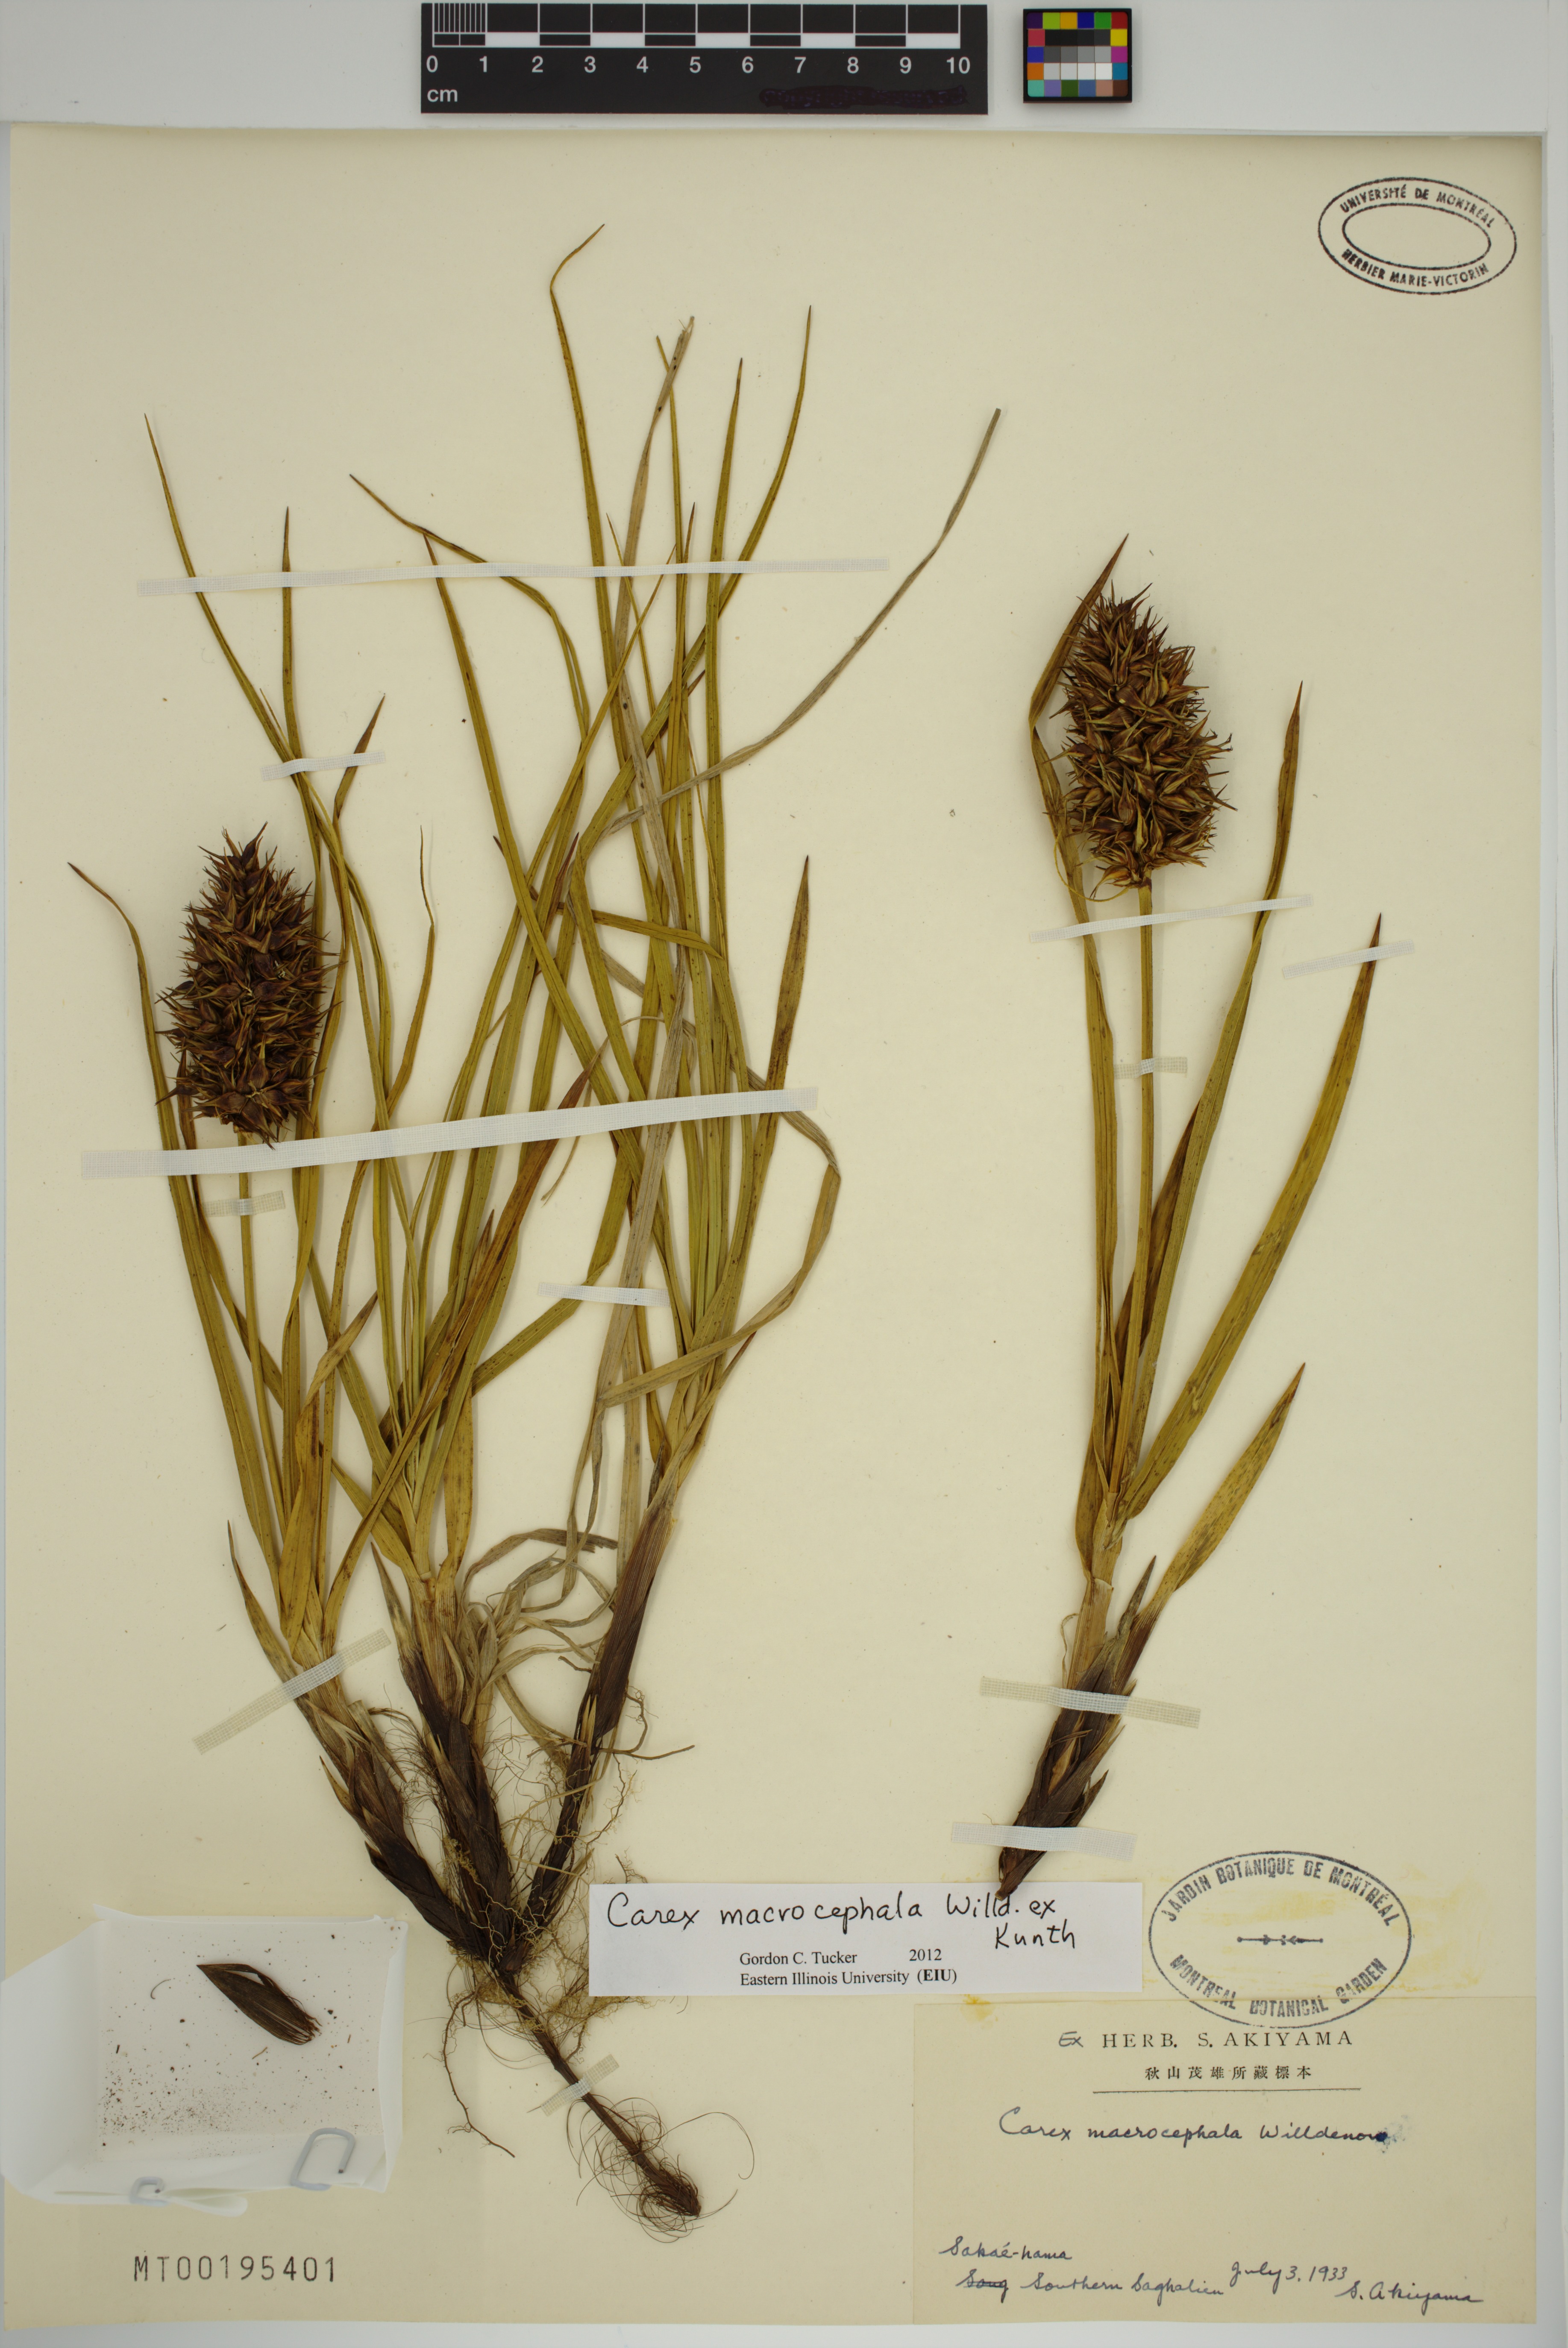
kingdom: Plantae
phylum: Tracheophyta
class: Liliopsida
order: Poales
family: Cyperaceae
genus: Carex
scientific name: Carex macrocephala
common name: Large-head sedge
